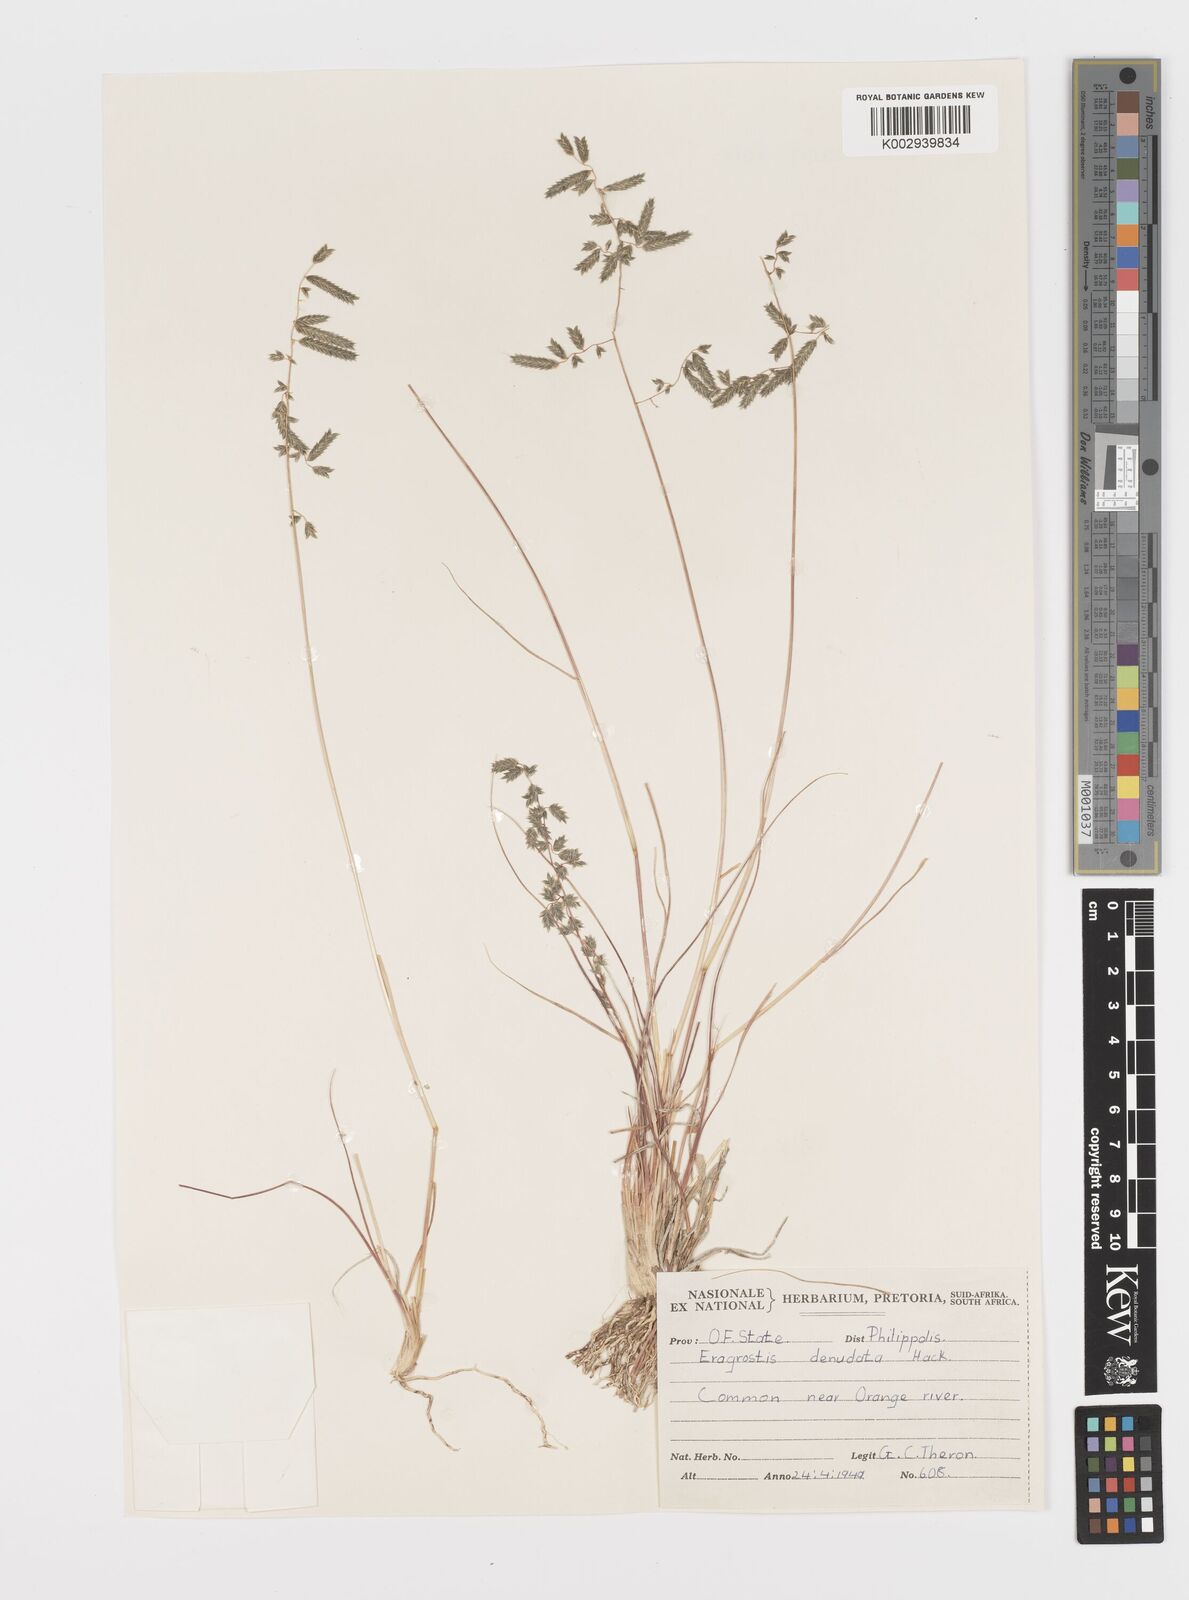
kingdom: Plantae
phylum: Tracheophyta
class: Liliopsida
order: Poales
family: Poaceae
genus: Eragrostis
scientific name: Eragrostis nindensis
